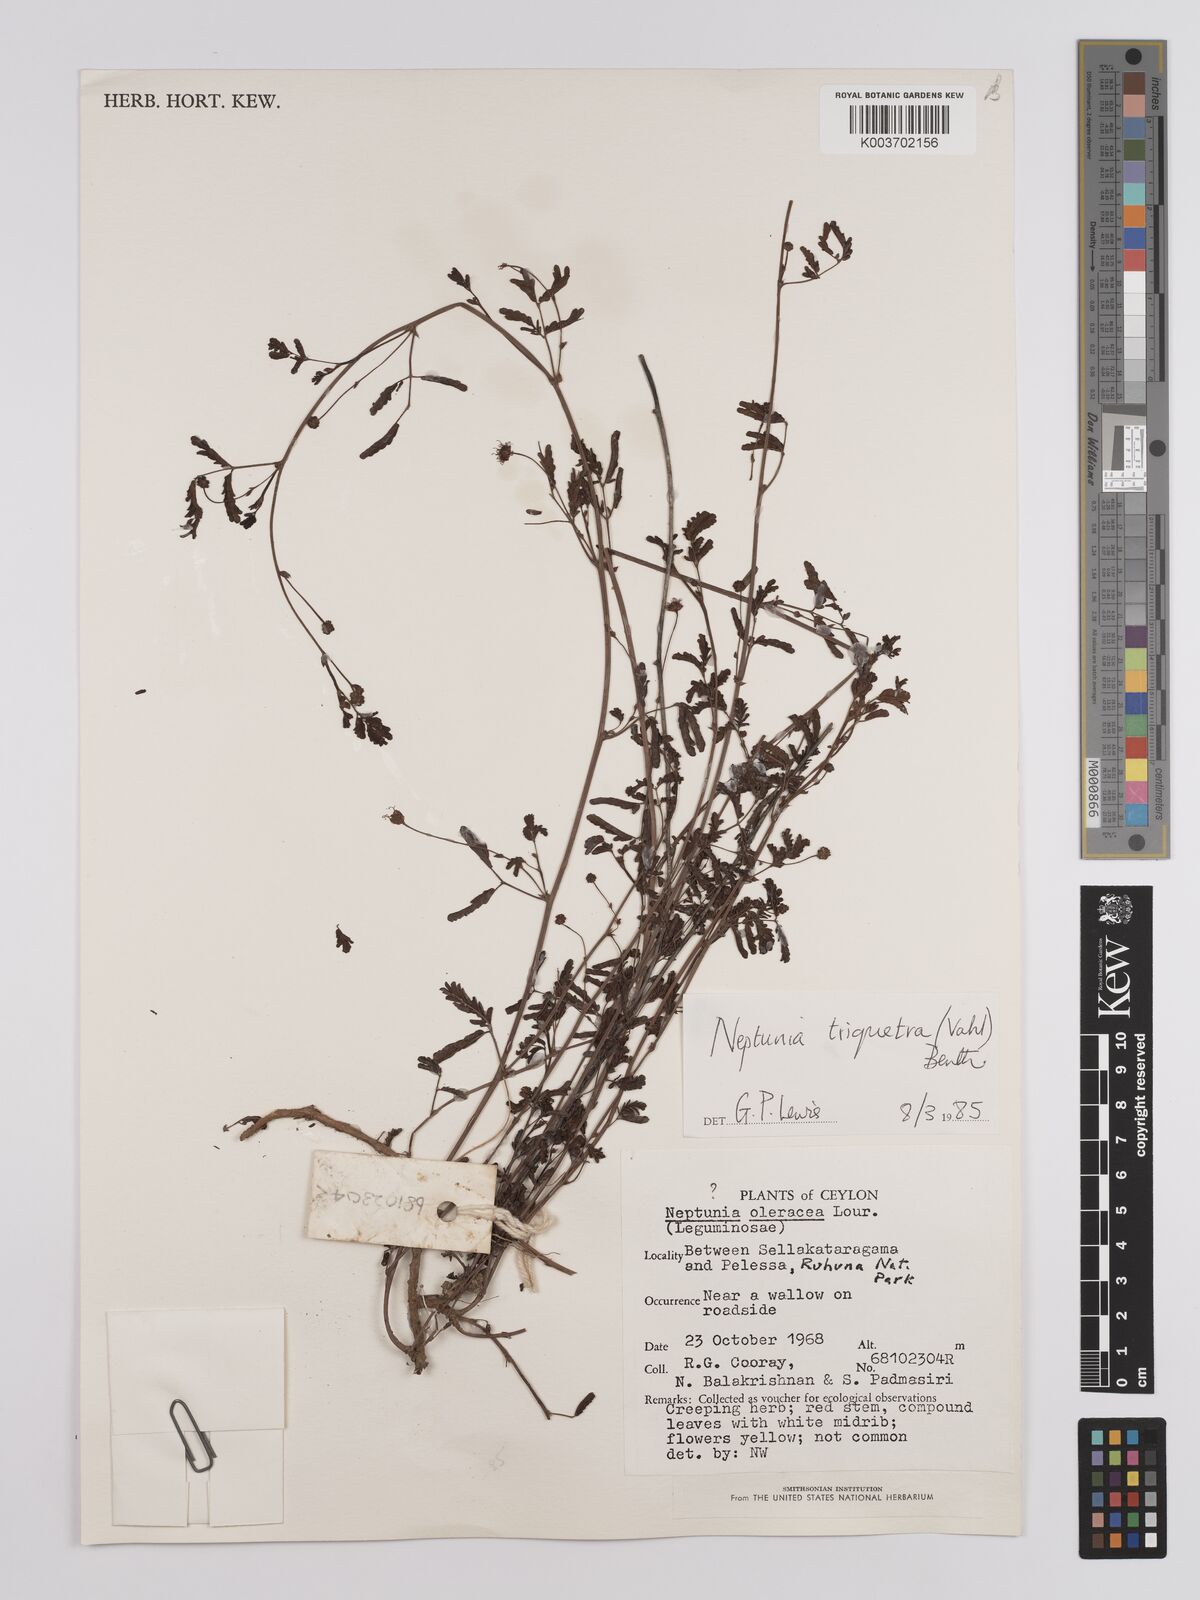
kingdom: Plantae
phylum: Tracheophyta
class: Magnoliopsida
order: Fabales
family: Fabaceae
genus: Neptunia
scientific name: Neptunia triquetra
